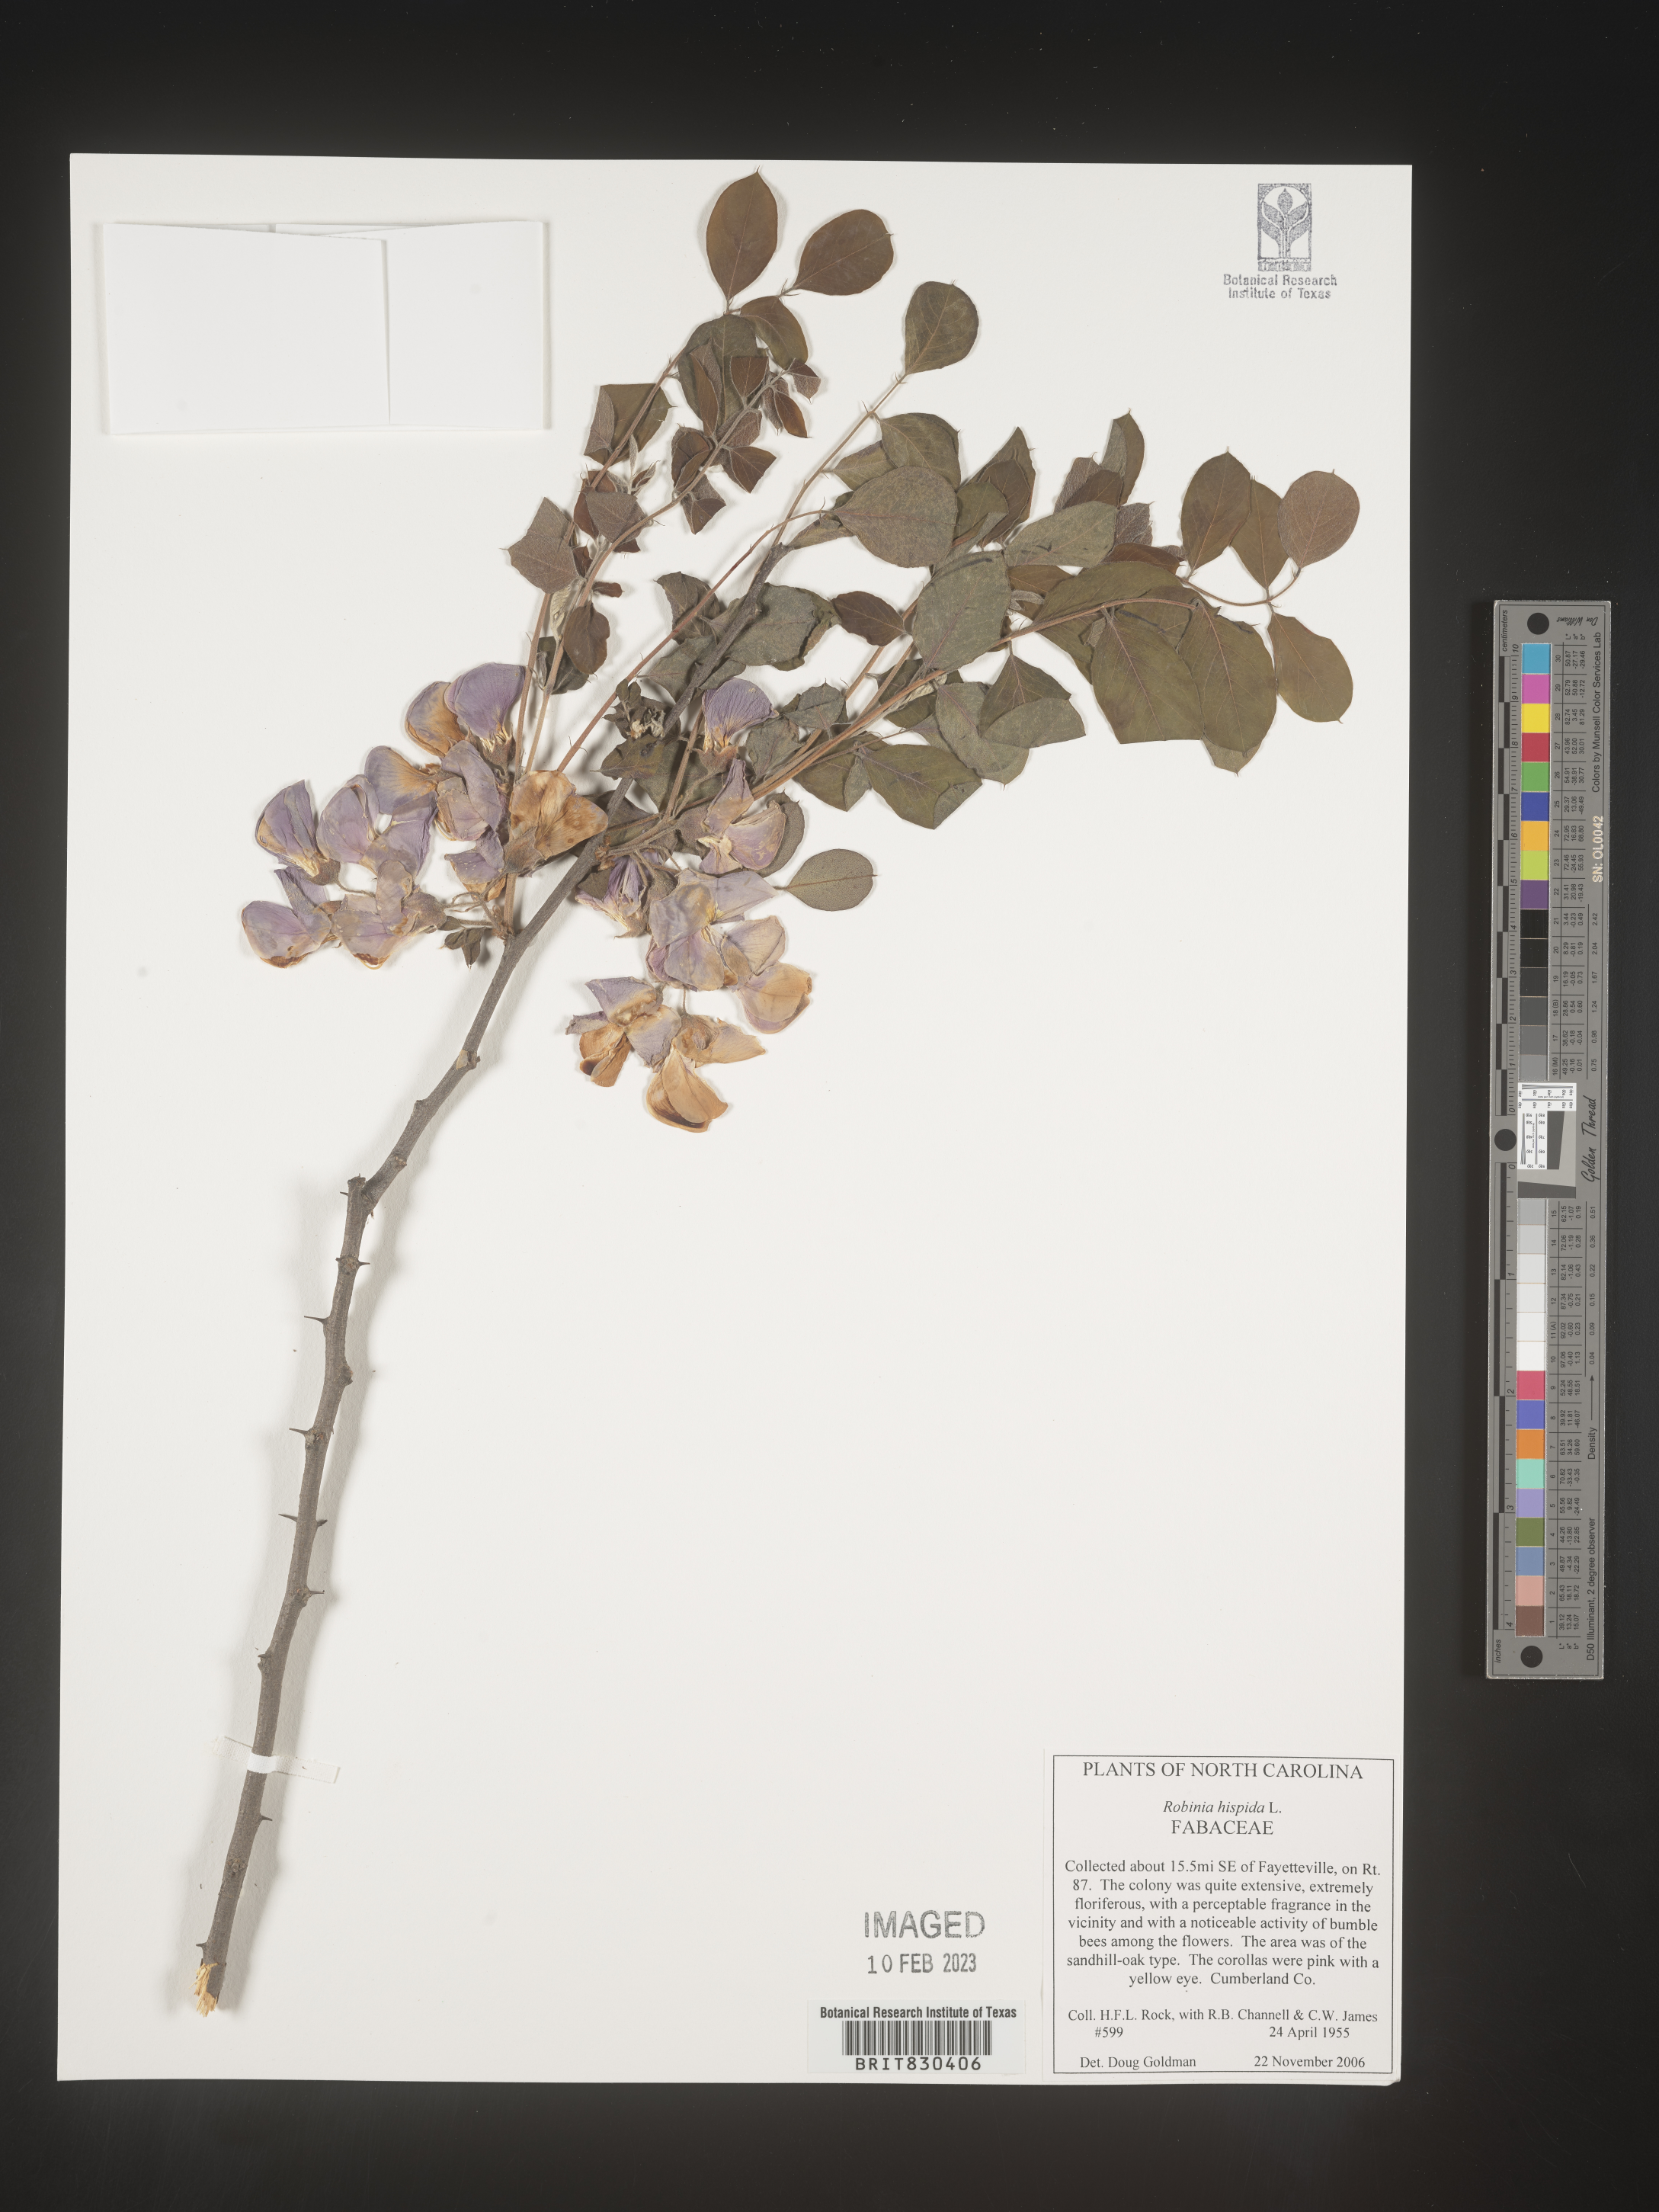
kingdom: Plantae
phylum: Tracheophyta
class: Magnoliopsida
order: Fabales
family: Fabaceae
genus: Robinia
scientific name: Robinia hispida
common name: Bristly locust
